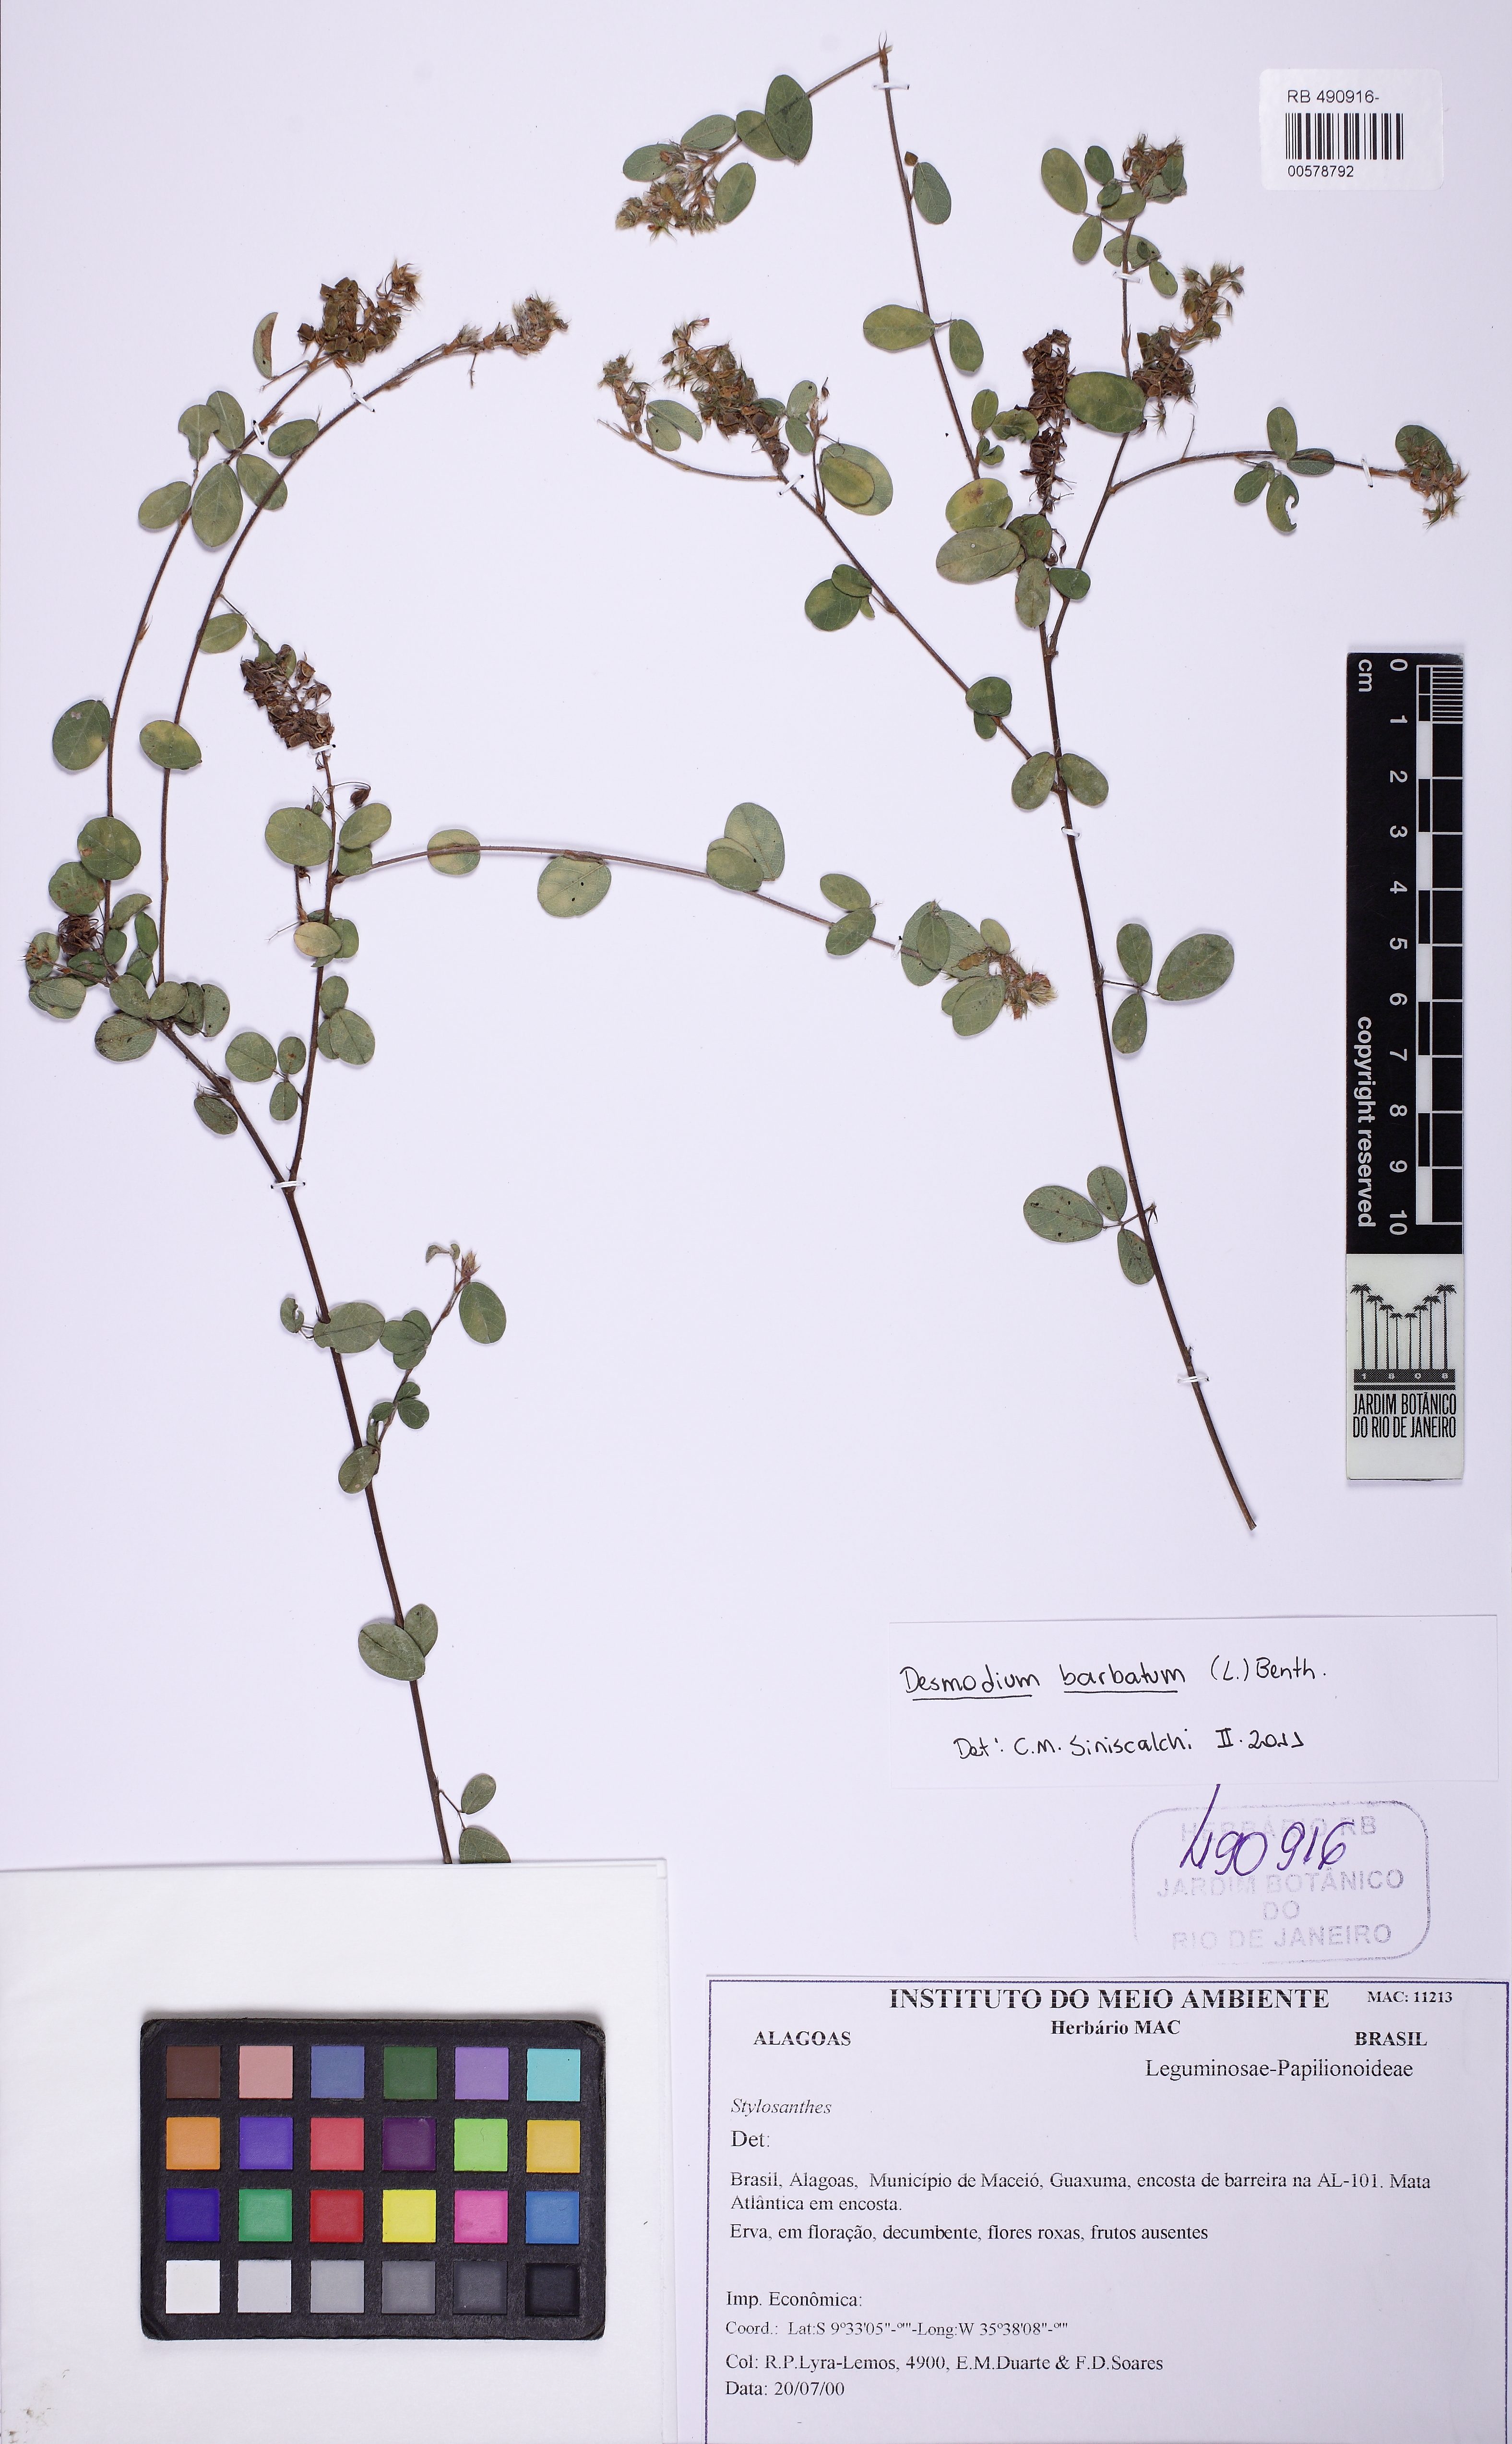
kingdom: Plantae
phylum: Tracheophyta
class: Magnoliopsida
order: Fabales
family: Fabaceae
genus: Grona
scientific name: Grona barbata
